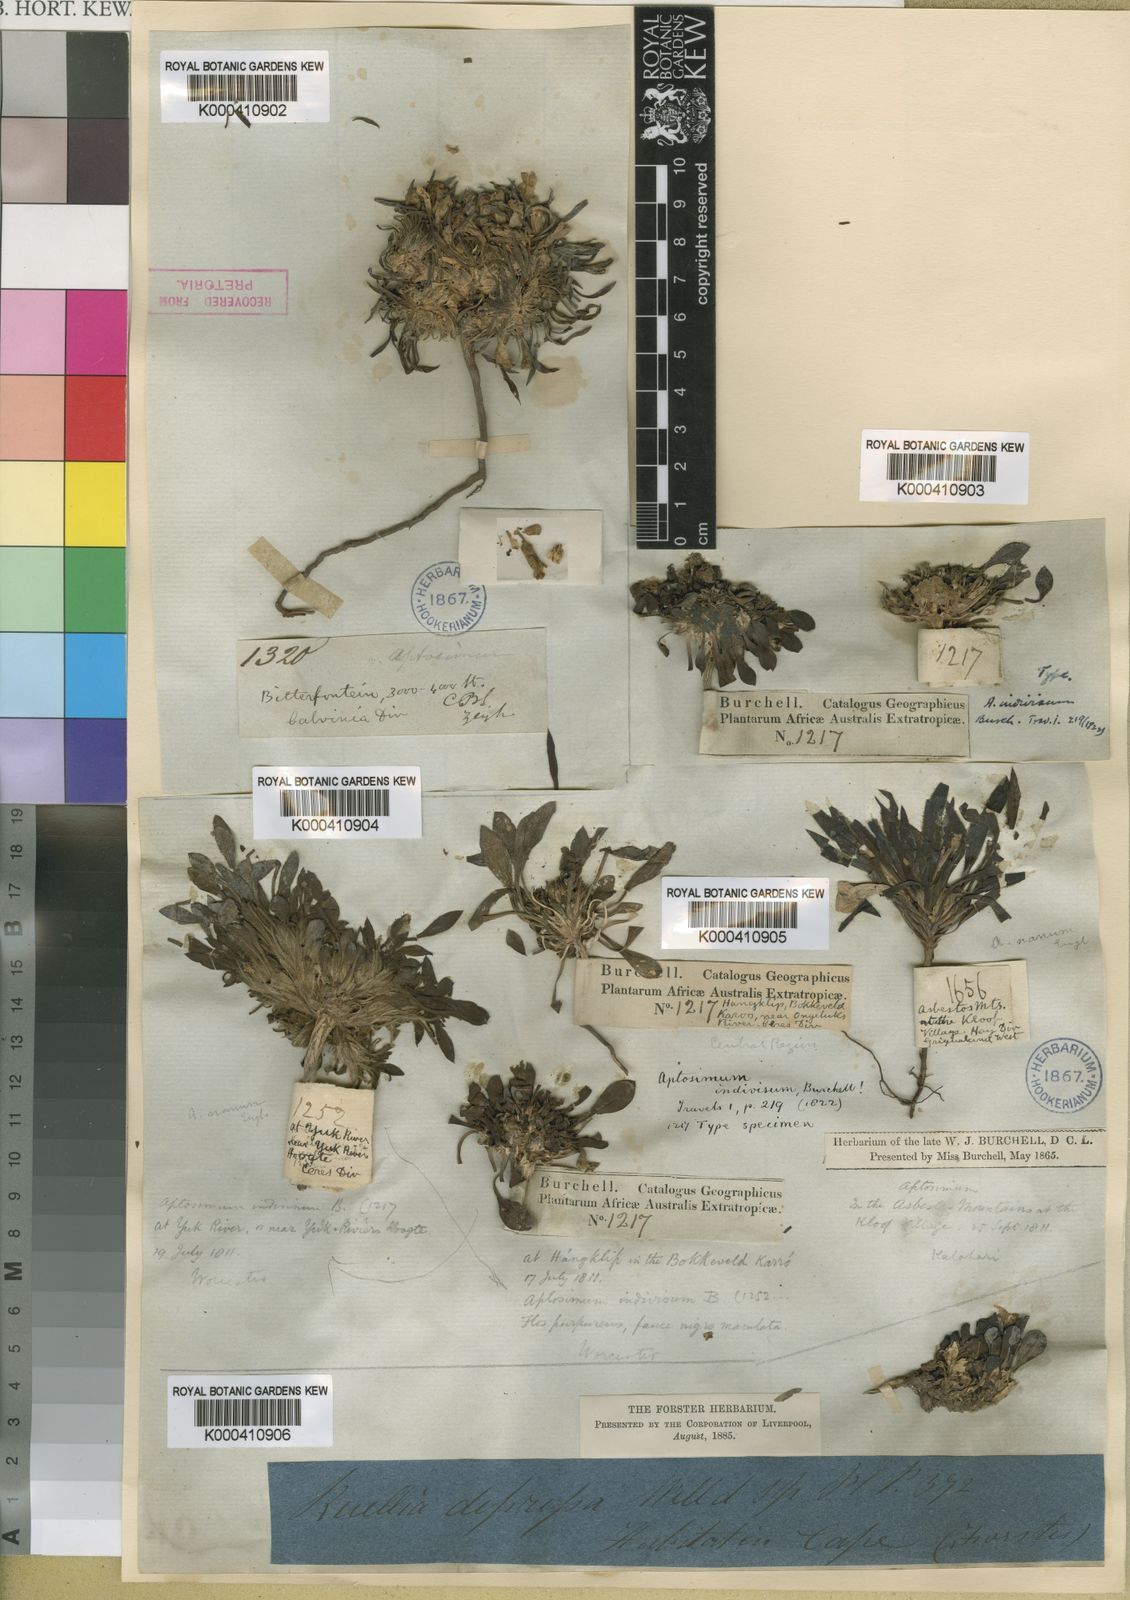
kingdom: Plantae
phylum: Tracheophyta
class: Magnoliopsida
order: Lamiales
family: Scrophulariaceae
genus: Aptosimum
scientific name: Aptosimum indivisum
